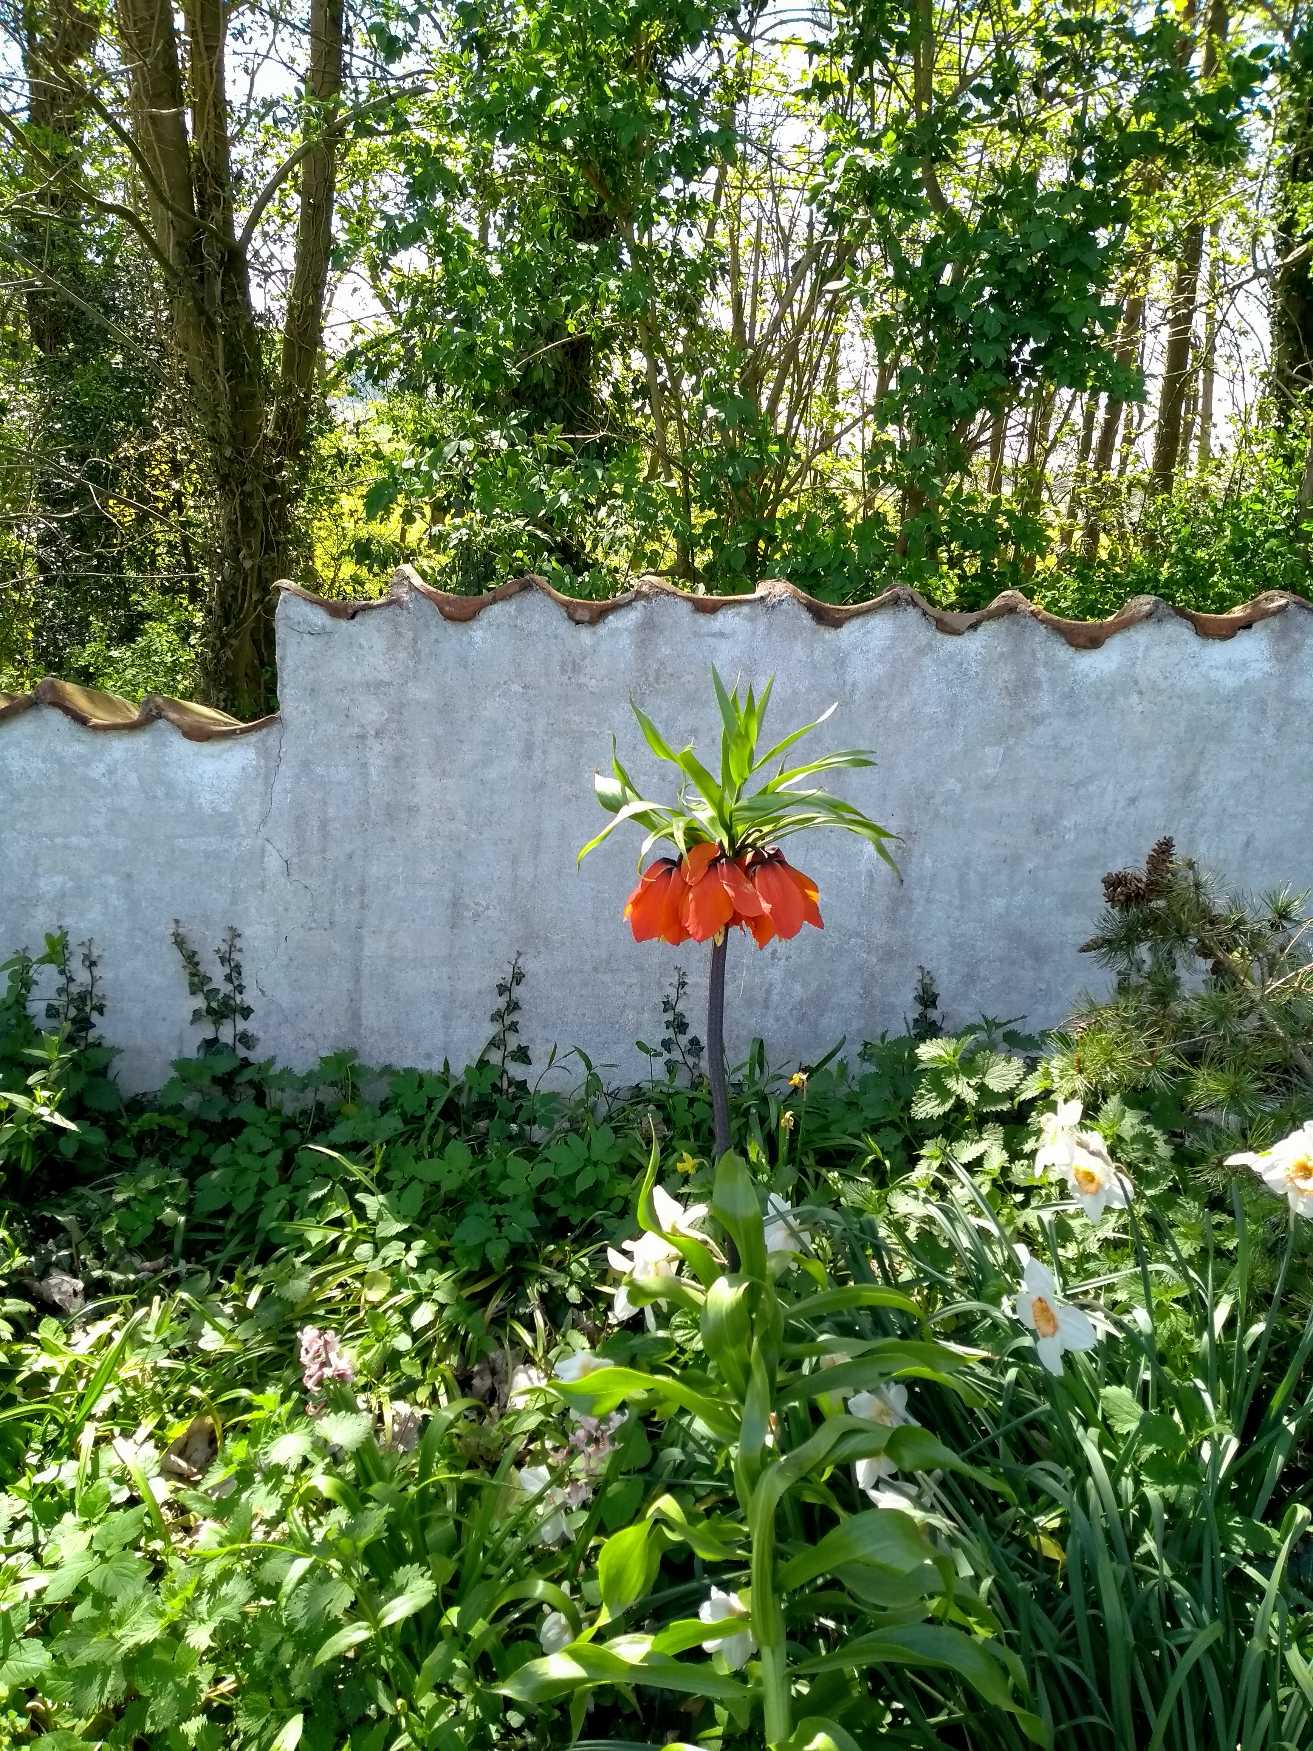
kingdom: Plantae
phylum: Tracheophyta
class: Liliopsida
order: Liliales
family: Liliaceae
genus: Fritillaria
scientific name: Fritillaria imperialis
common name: Kejserkrone
